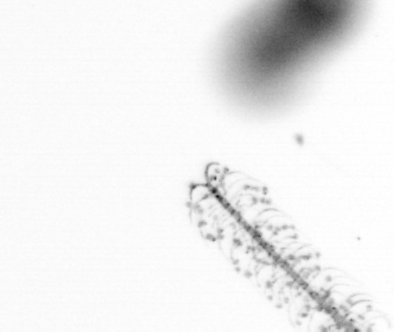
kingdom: Chromista
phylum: Ochrophyta
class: Bacillariophyceae
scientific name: Bacillariophyceae
